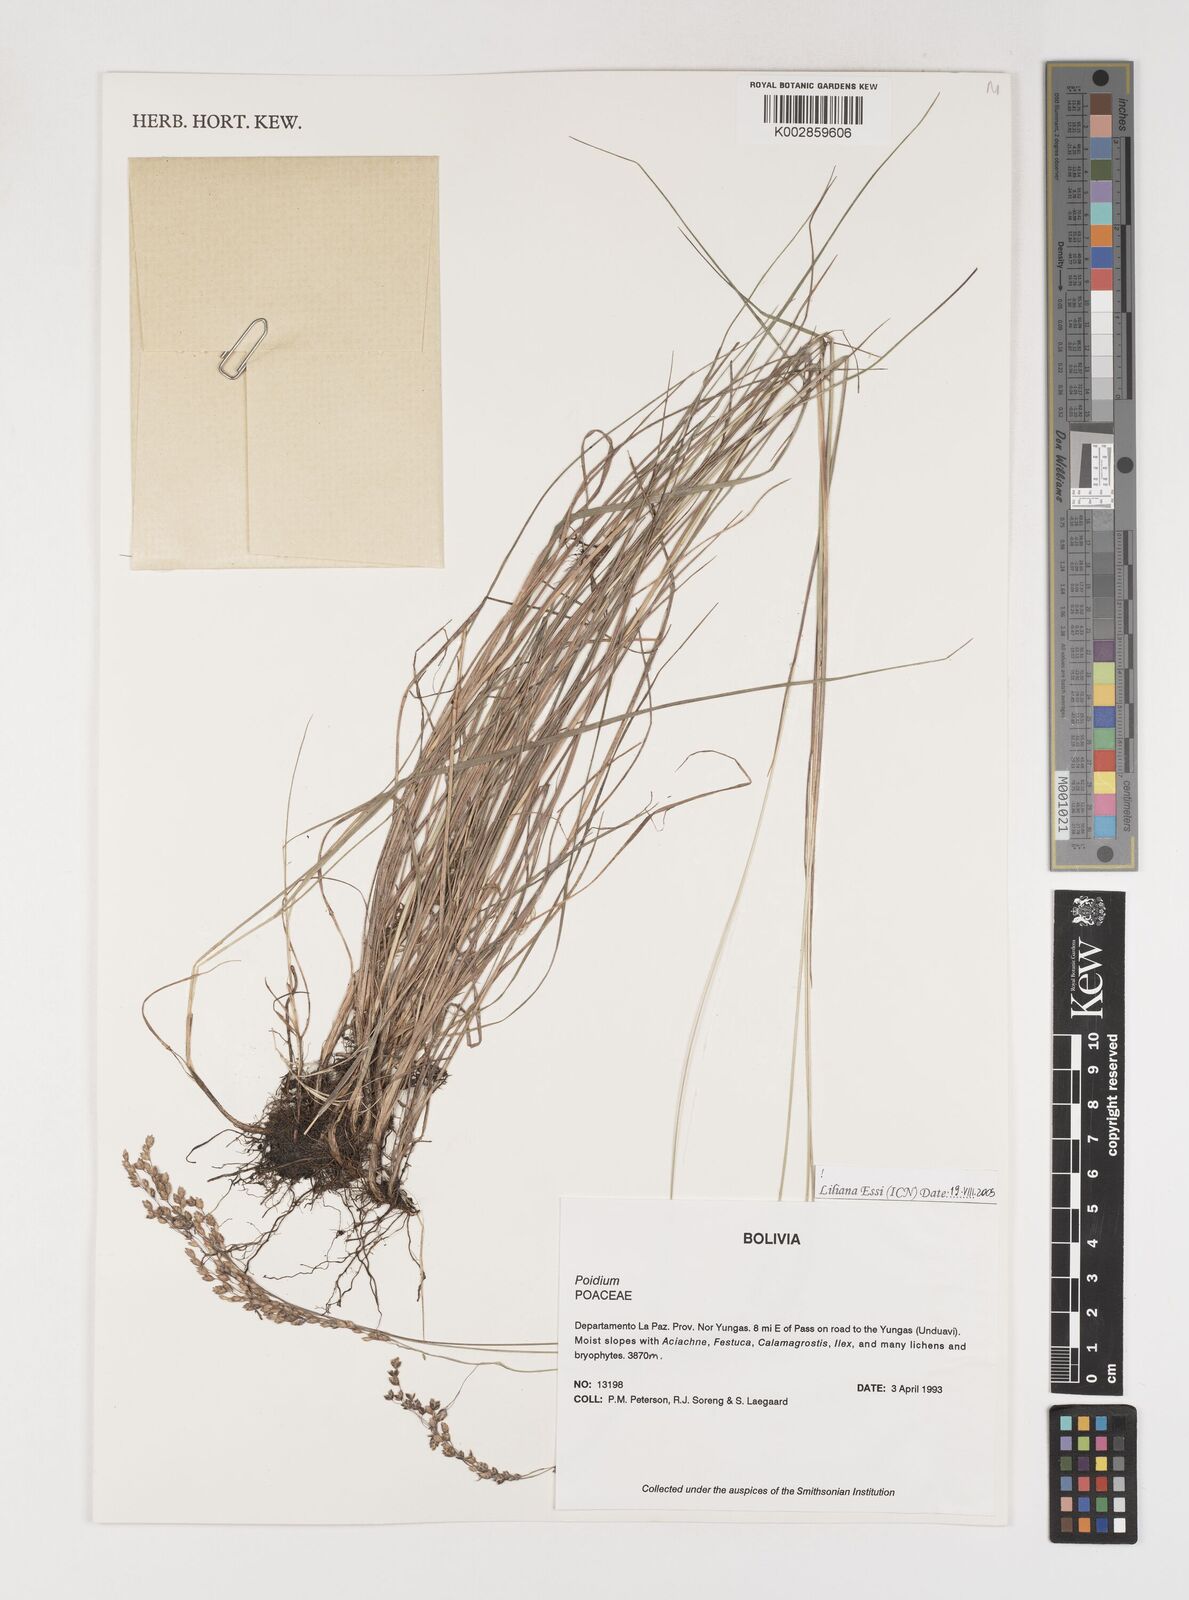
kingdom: Plantae
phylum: Tracheophyta
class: Liliopsida
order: Poales
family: Poaceae
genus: Poidium
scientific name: Poidium monandrum
